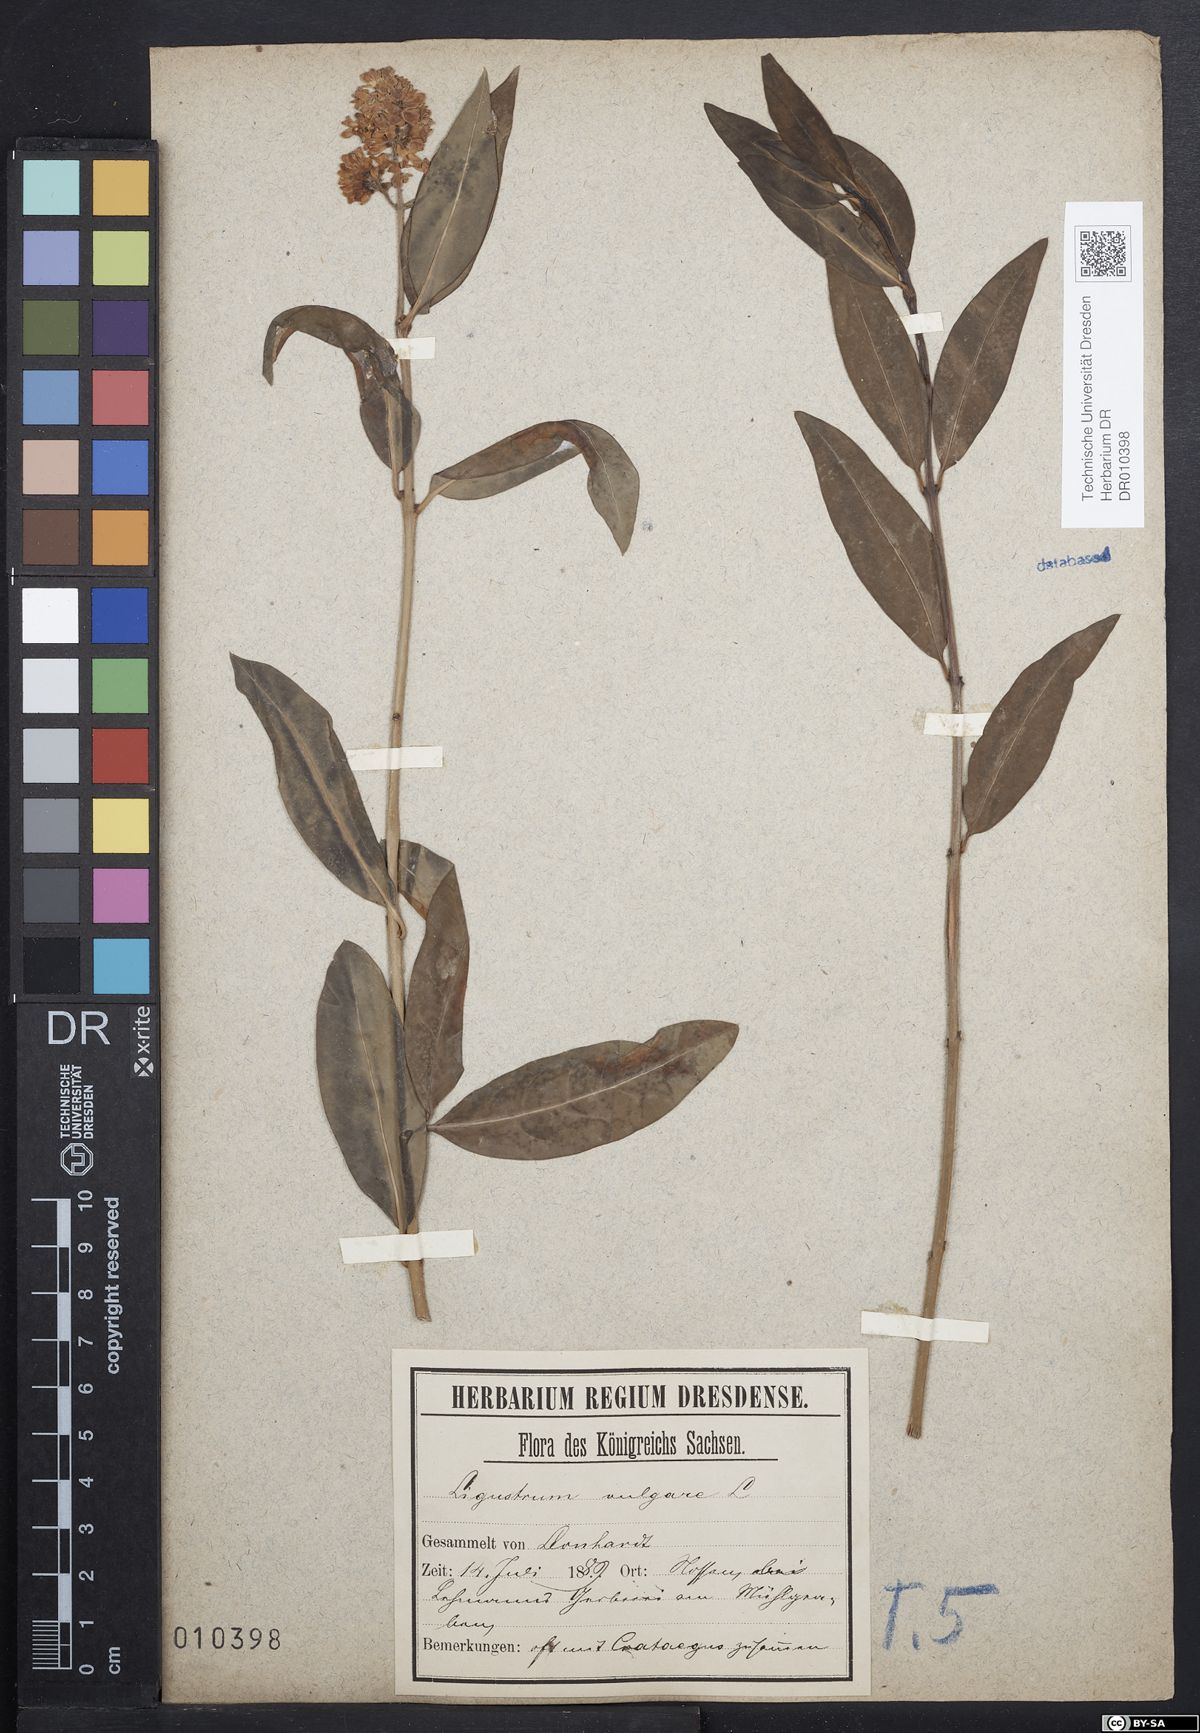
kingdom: Plantae
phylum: Tracheophyta
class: Magnoliopsida
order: Lamiales
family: Oleaceae
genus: Ligustrum
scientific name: Ligustrum vulgare
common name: Wild privet
